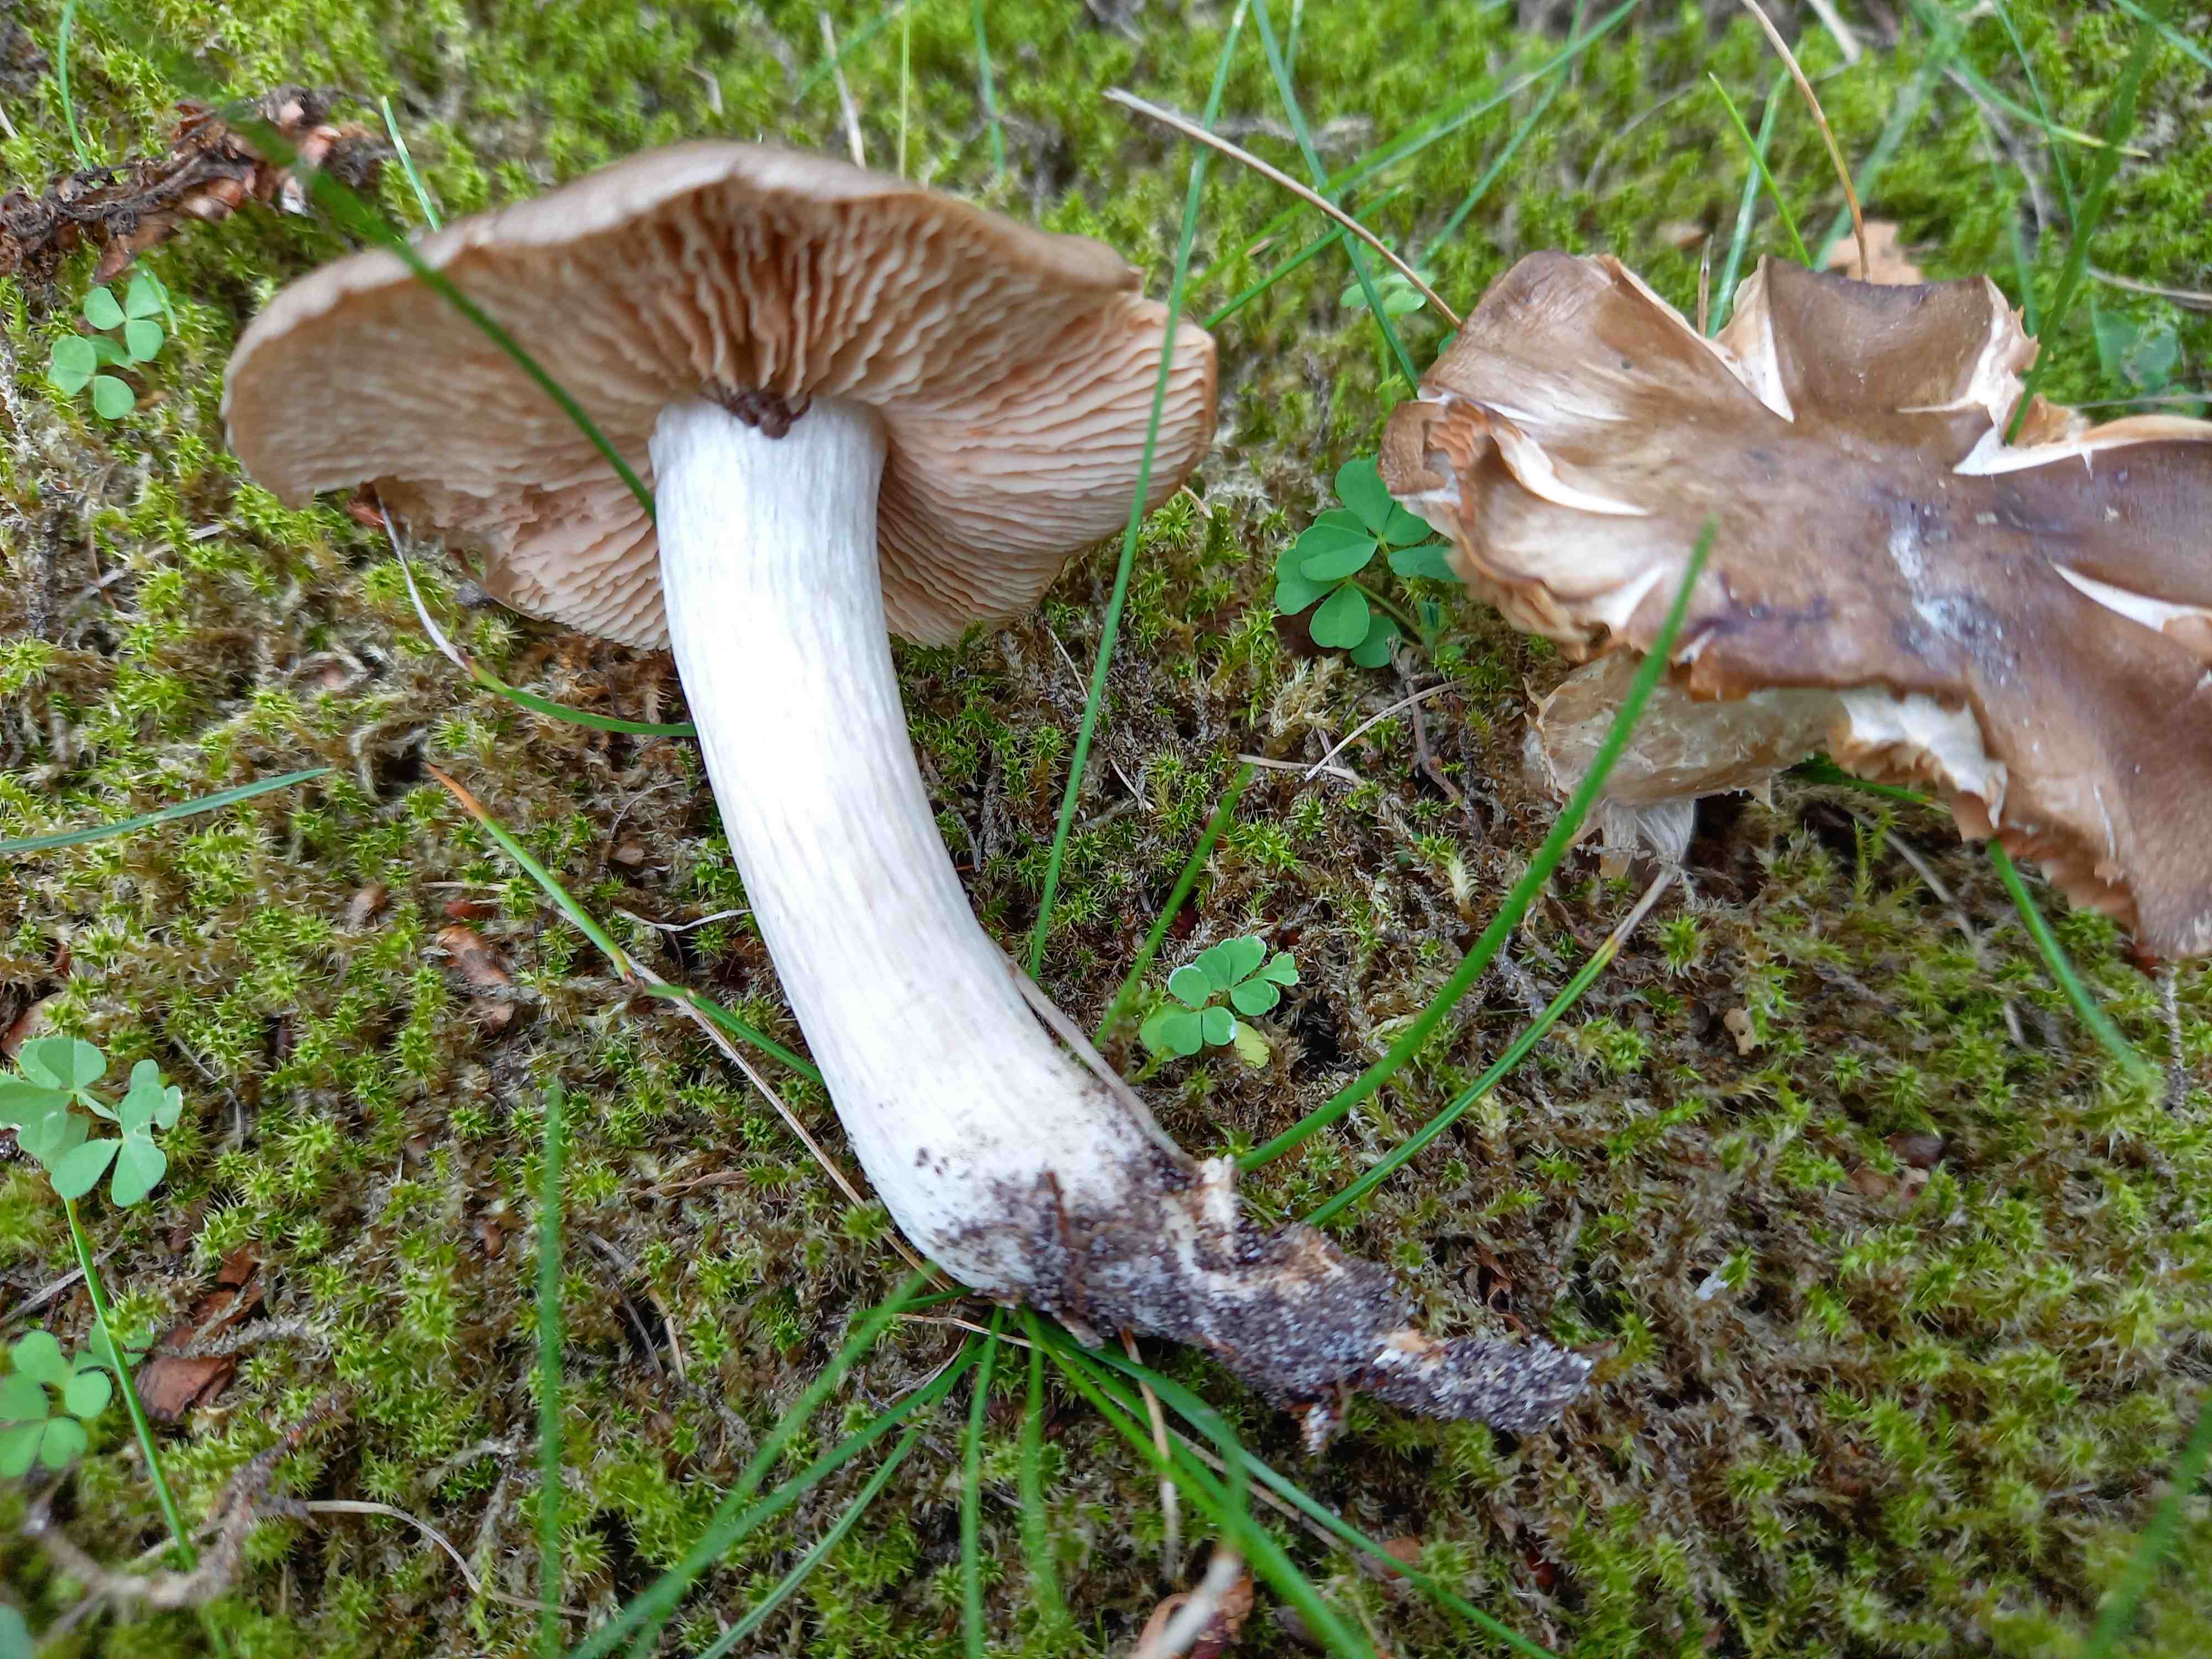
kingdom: Fungi
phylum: Basidiomycota
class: Agaricomycetes
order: Agaricales
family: Entolomataceae
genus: Entoloma
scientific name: Entoloma lividoalbum
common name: lysstokket rødblad
